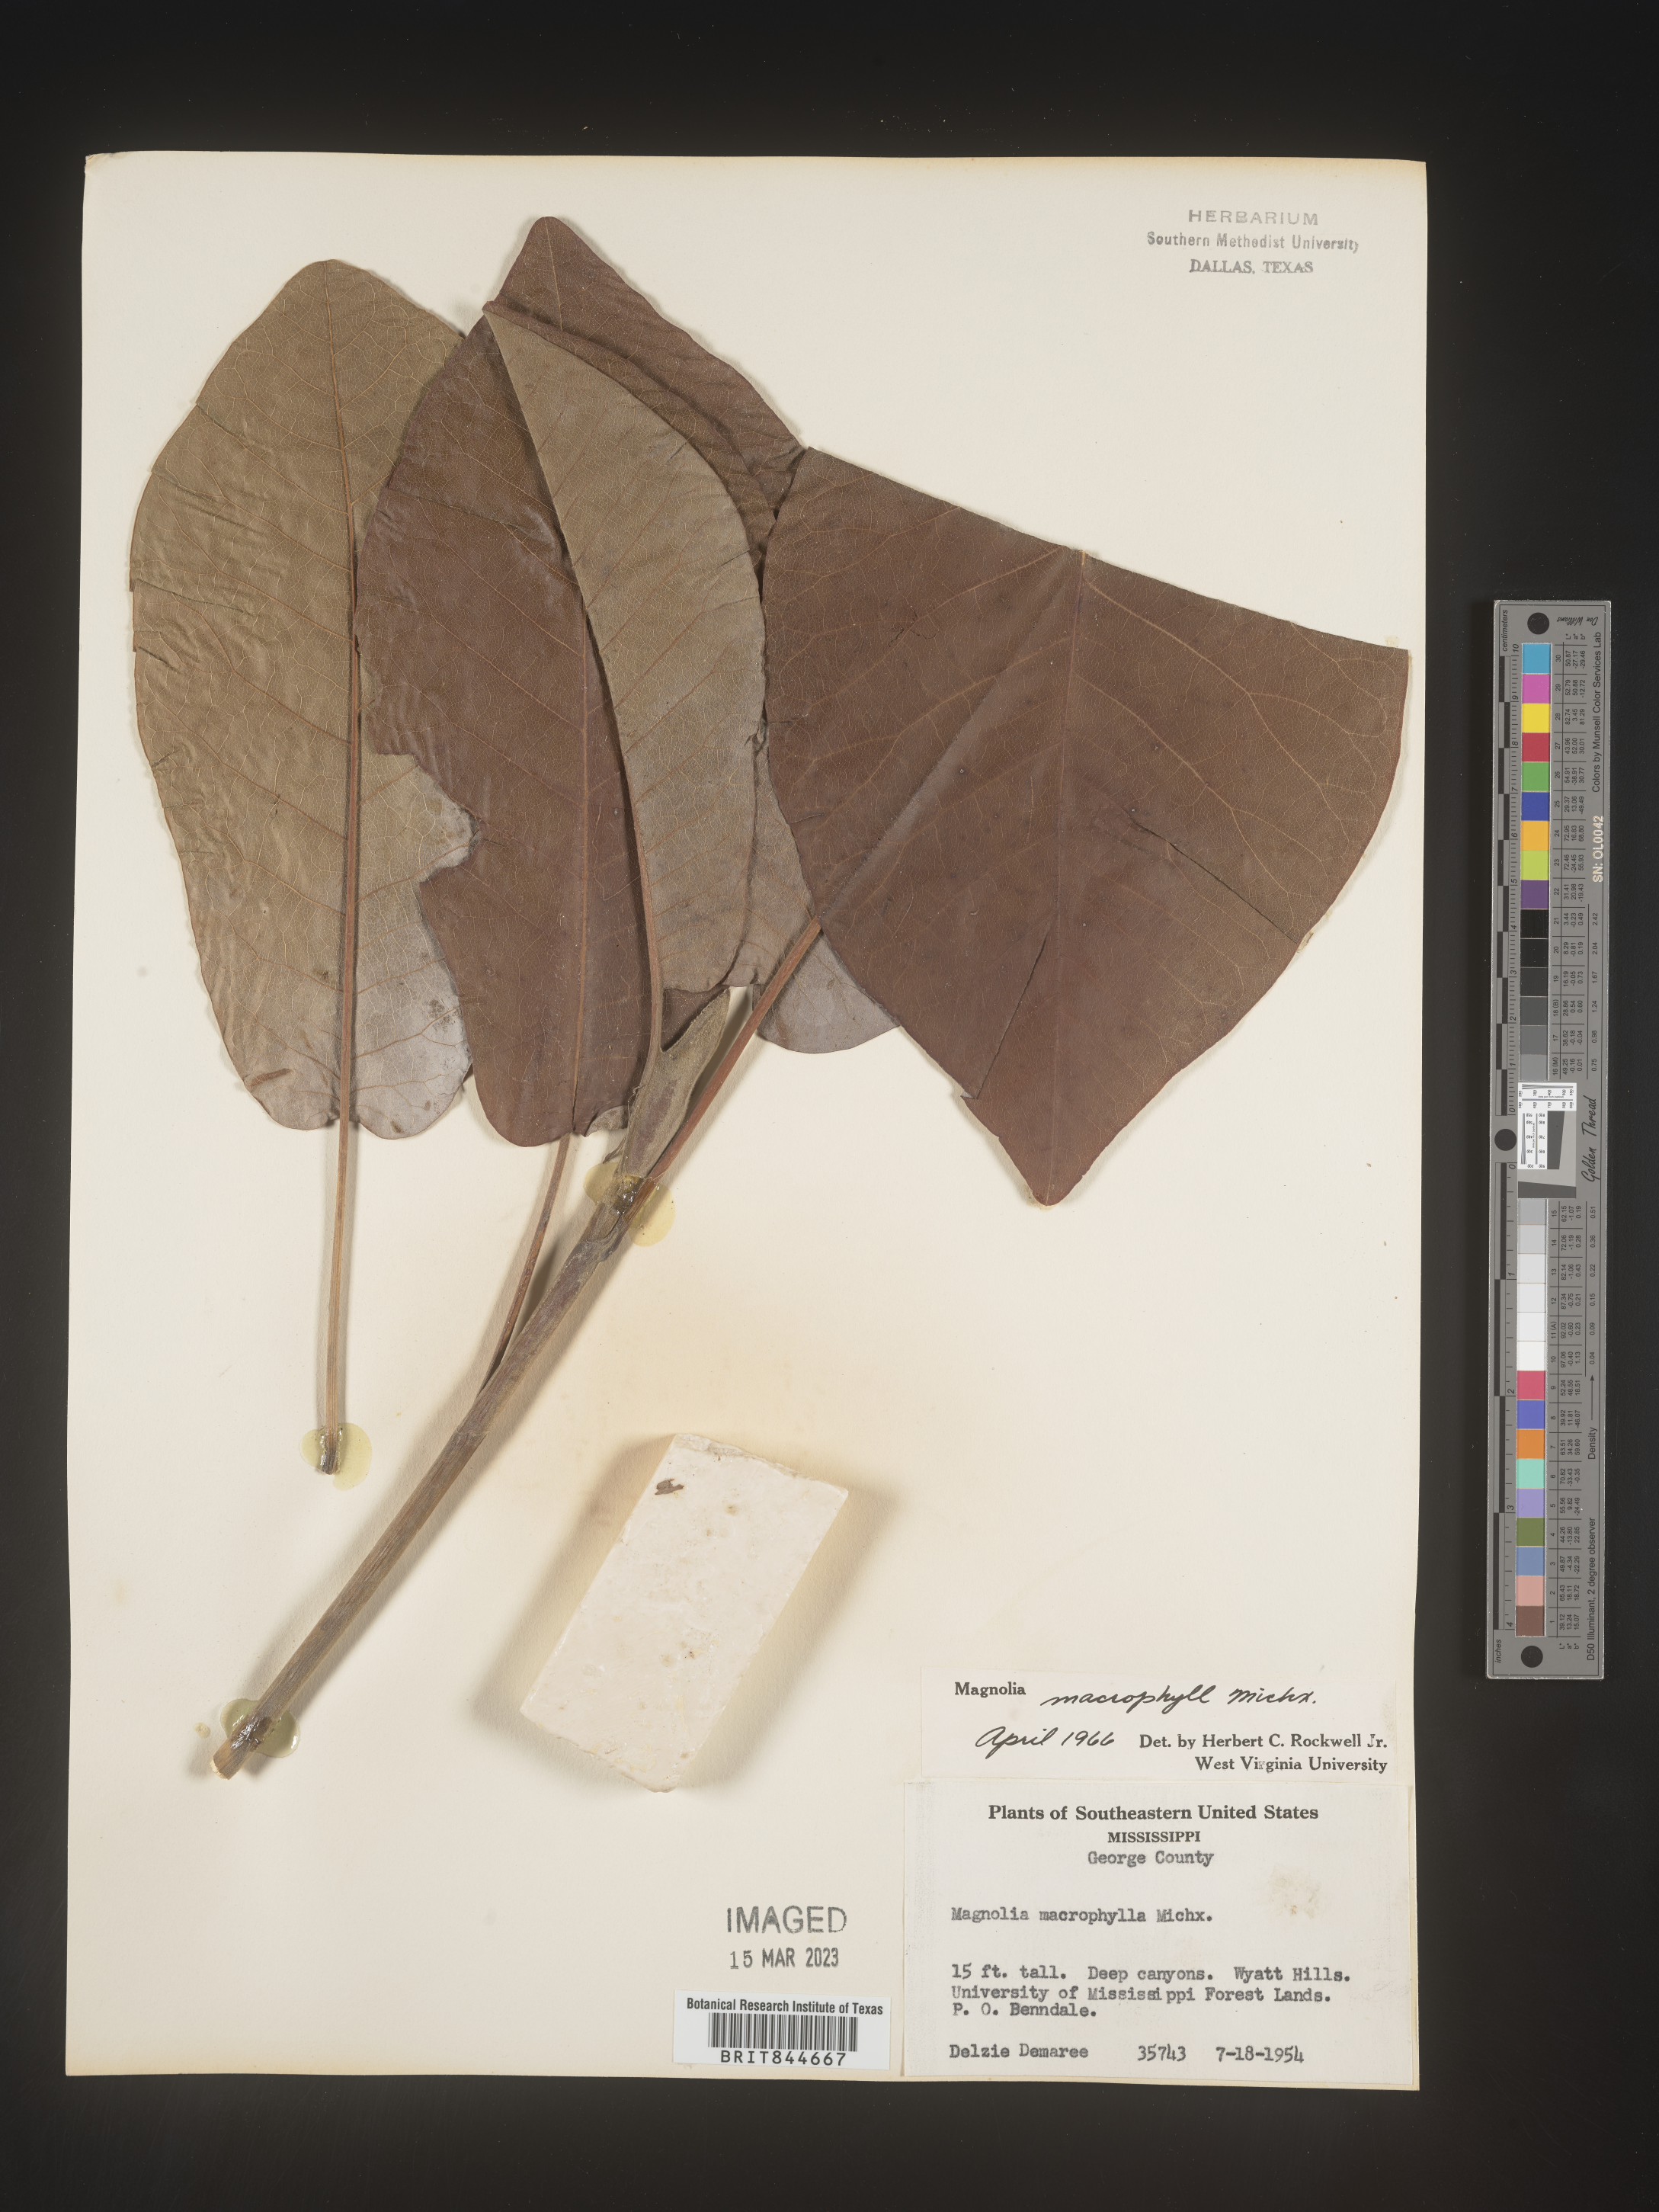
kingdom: Plantae
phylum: Tracheophyta
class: Magnoliopsida
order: Magnoliales
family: Magnoliaceae
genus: Magnolia
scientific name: Magnolia macrophylla
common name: Big-leaf magnolia
